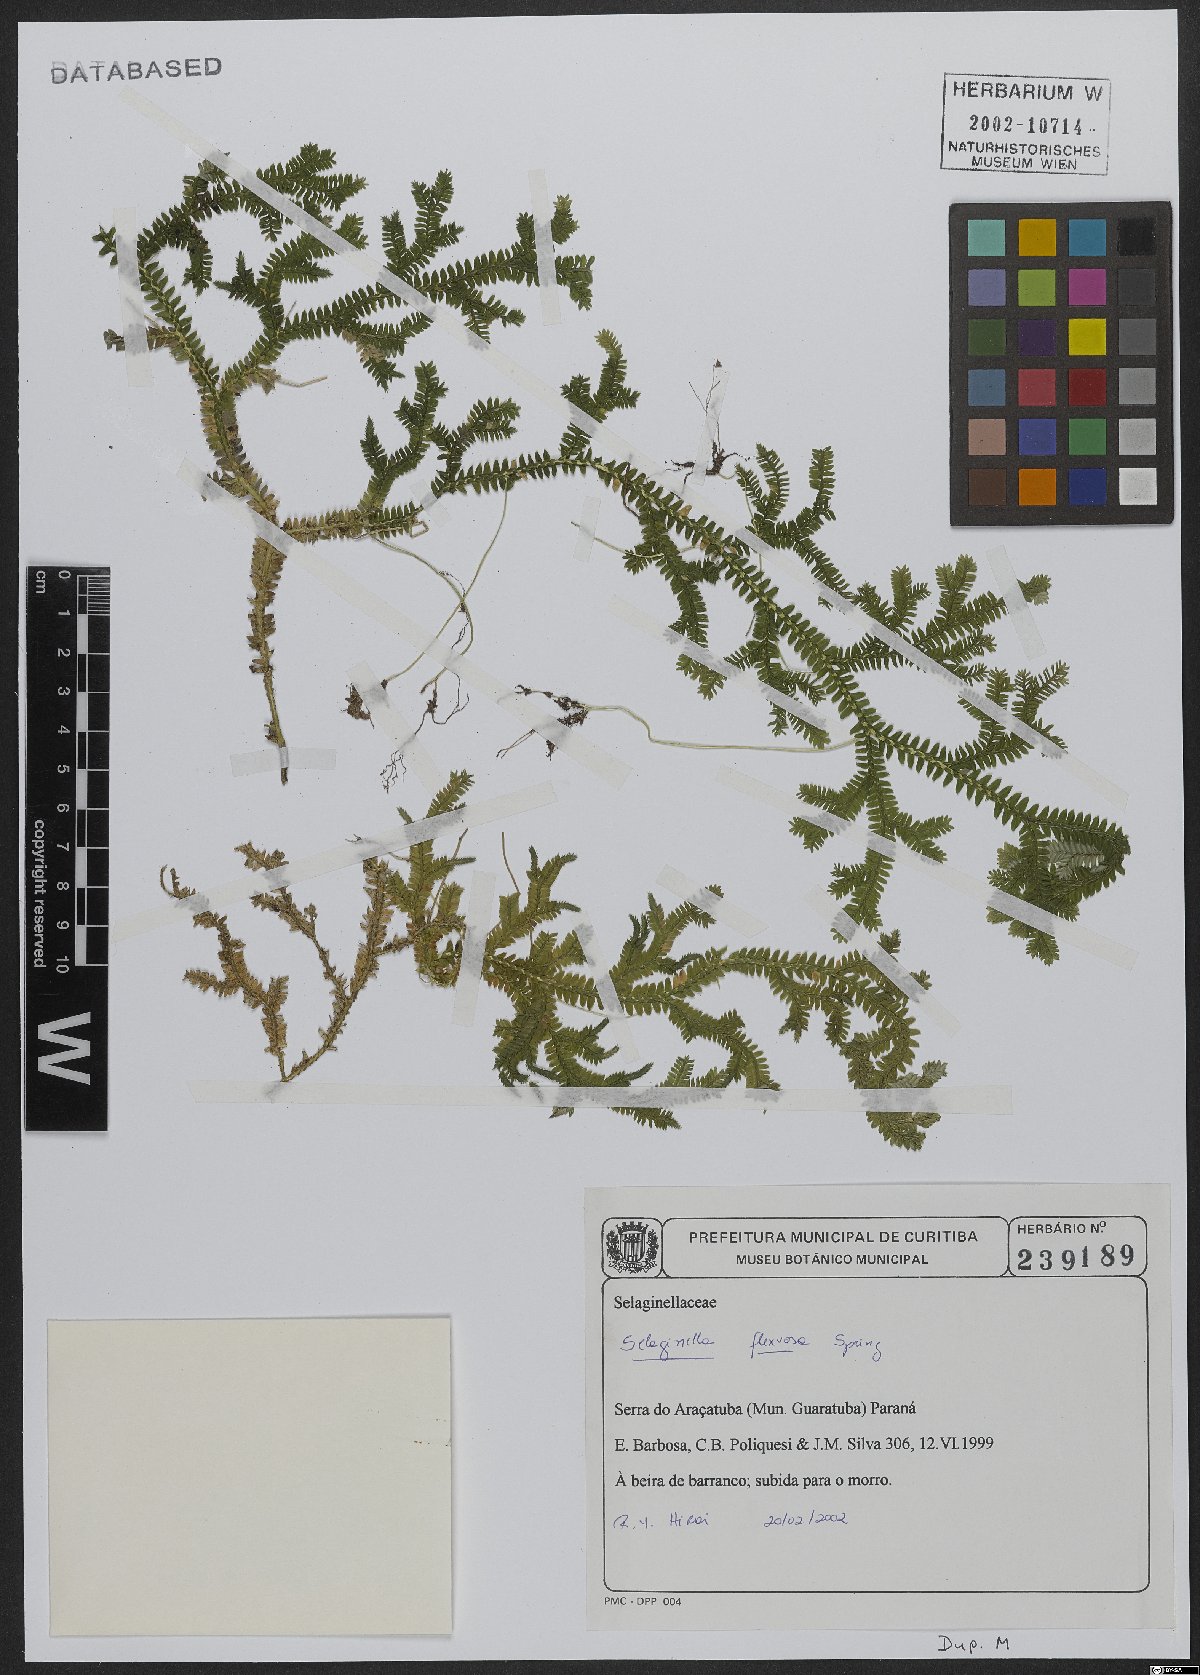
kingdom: Plantae
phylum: Tracheophyta
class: Lycopodiopsida
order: Selaginellales
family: Selaginellaceae
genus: Selaginella
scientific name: Selaginella flexuosa
